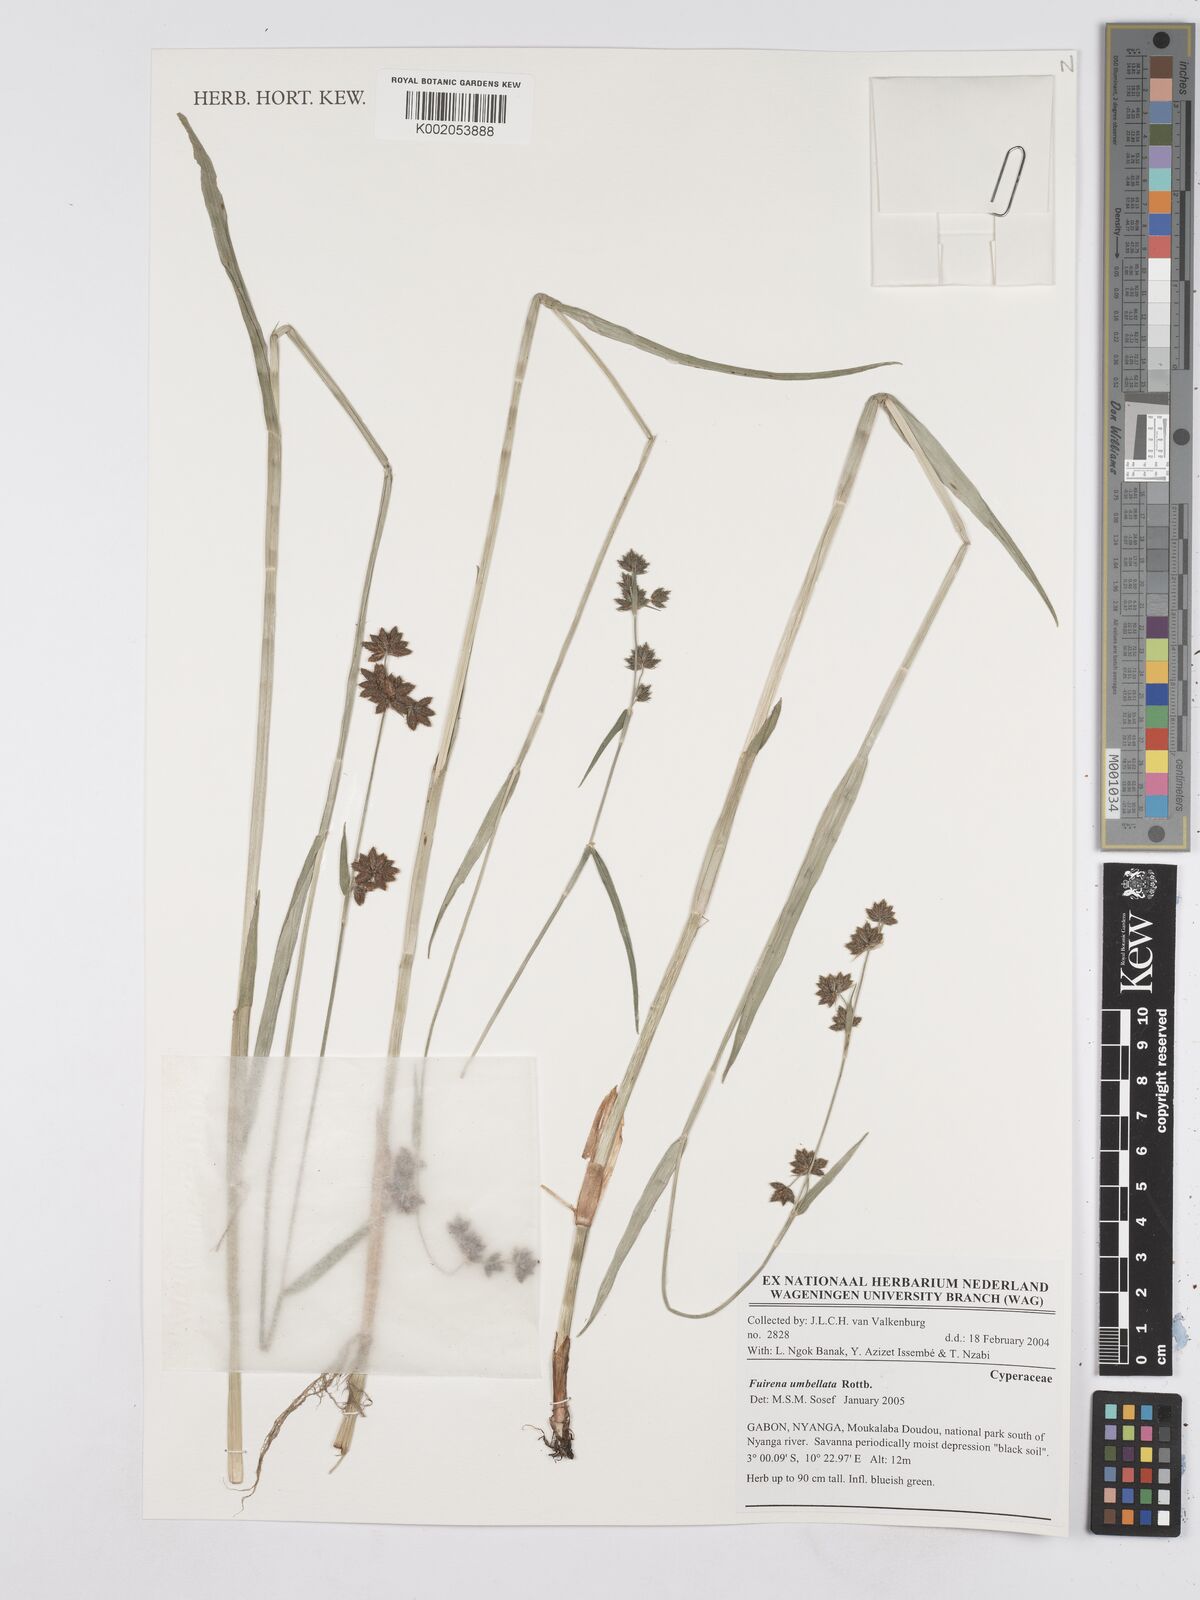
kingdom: Plantae
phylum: Tracheophyta
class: Liliopsida
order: Poales
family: Cyperaceae
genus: Fuirena
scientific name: Fuirena umbellata
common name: Yefen
